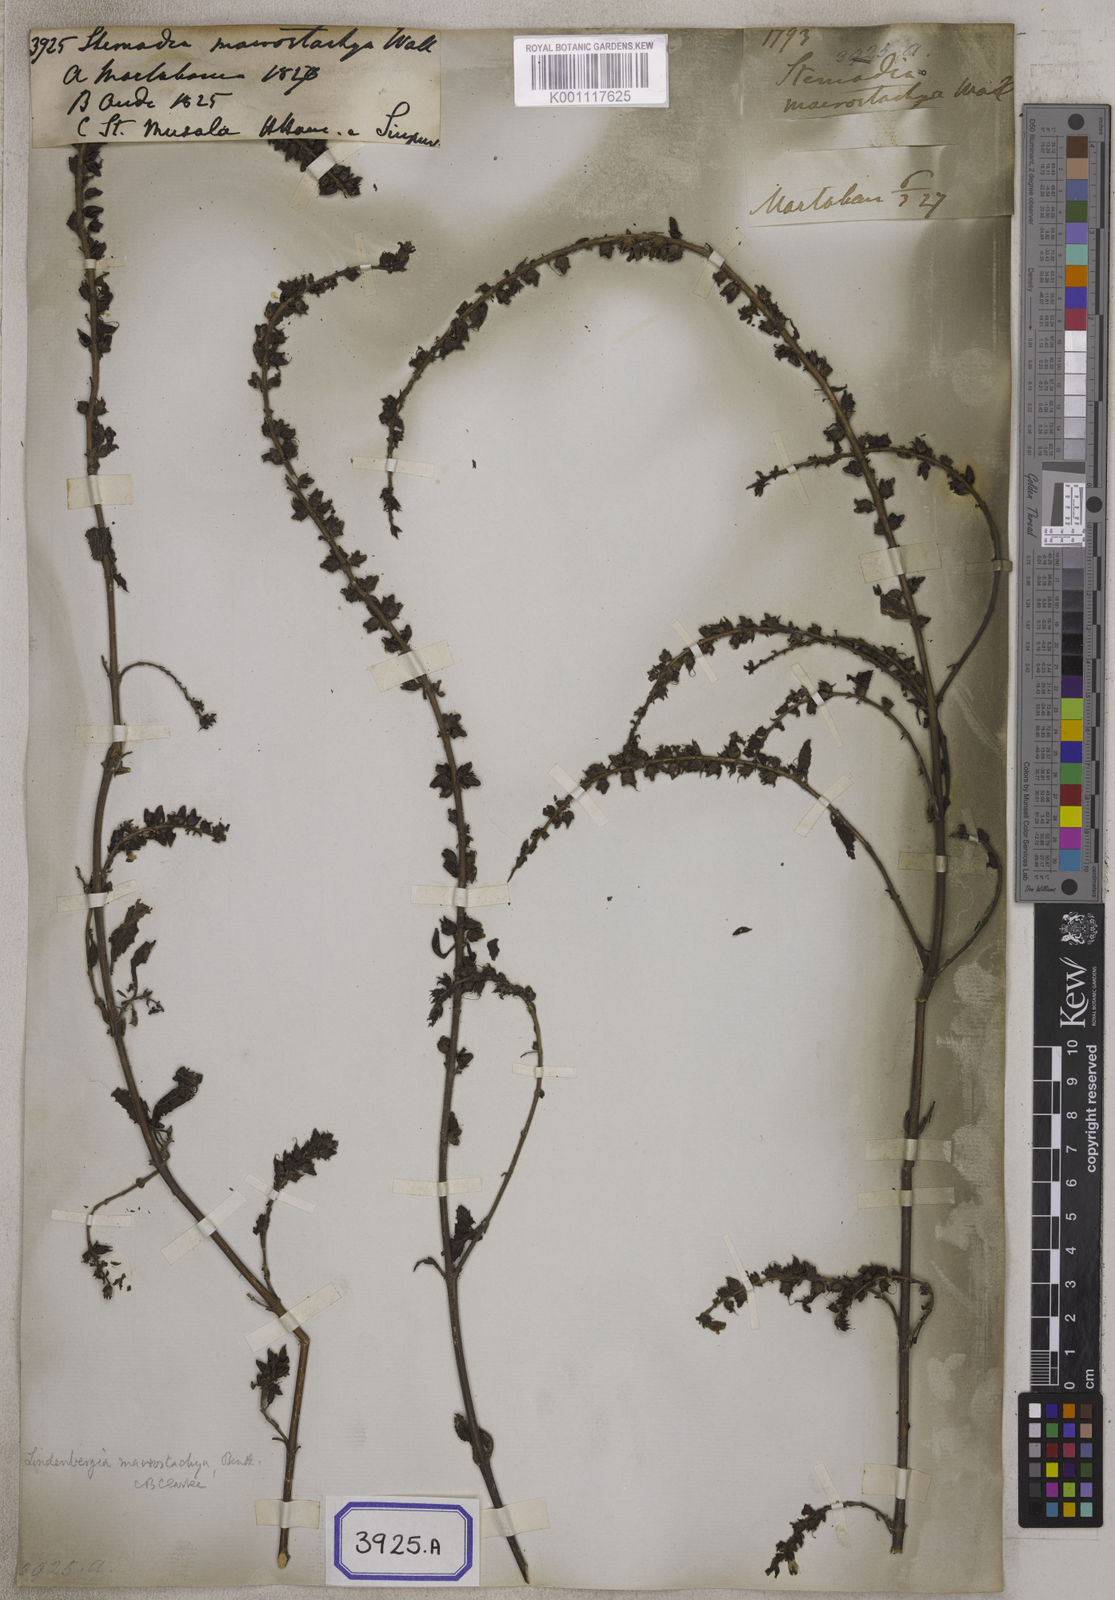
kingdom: Plantae
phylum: Tracheophyta
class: Magnoliopsida
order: Lamiales
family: Plantaginaceae
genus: Stemodia
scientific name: Stemodia
